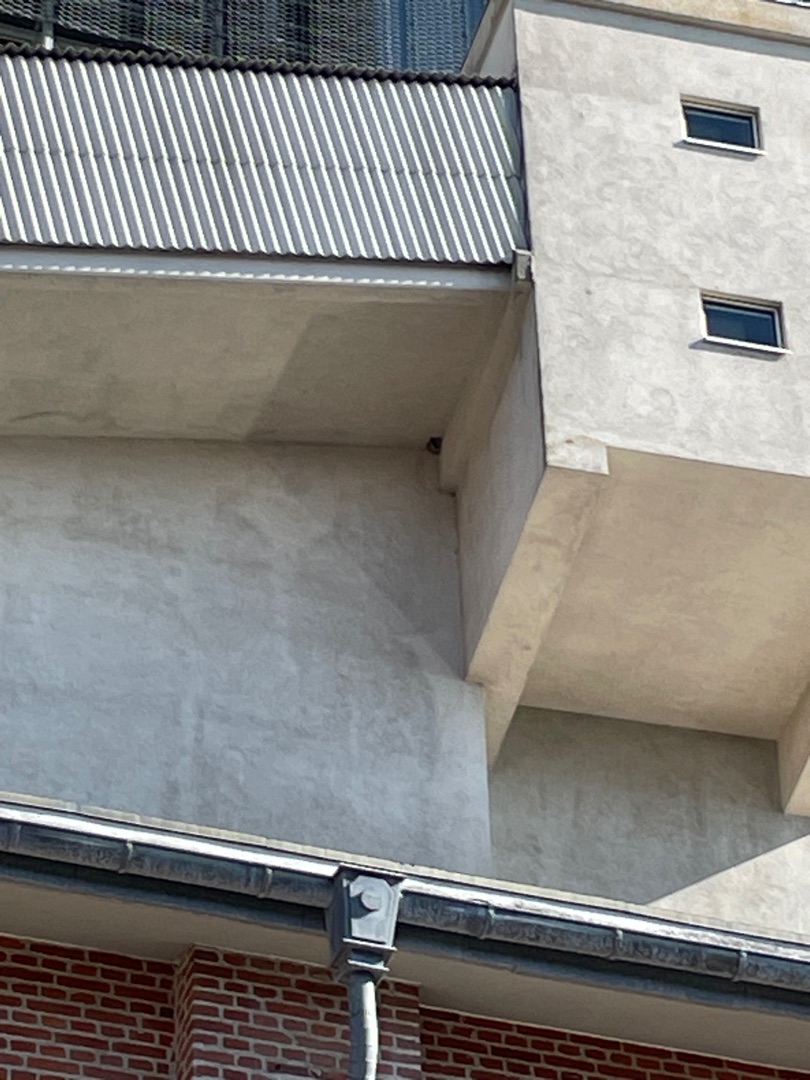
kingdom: Animalia
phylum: Chordata
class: Aves
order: Passeriformes
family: Hirundinidae
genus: Delichon
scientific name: Delichon urbicum
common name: Bysvale
